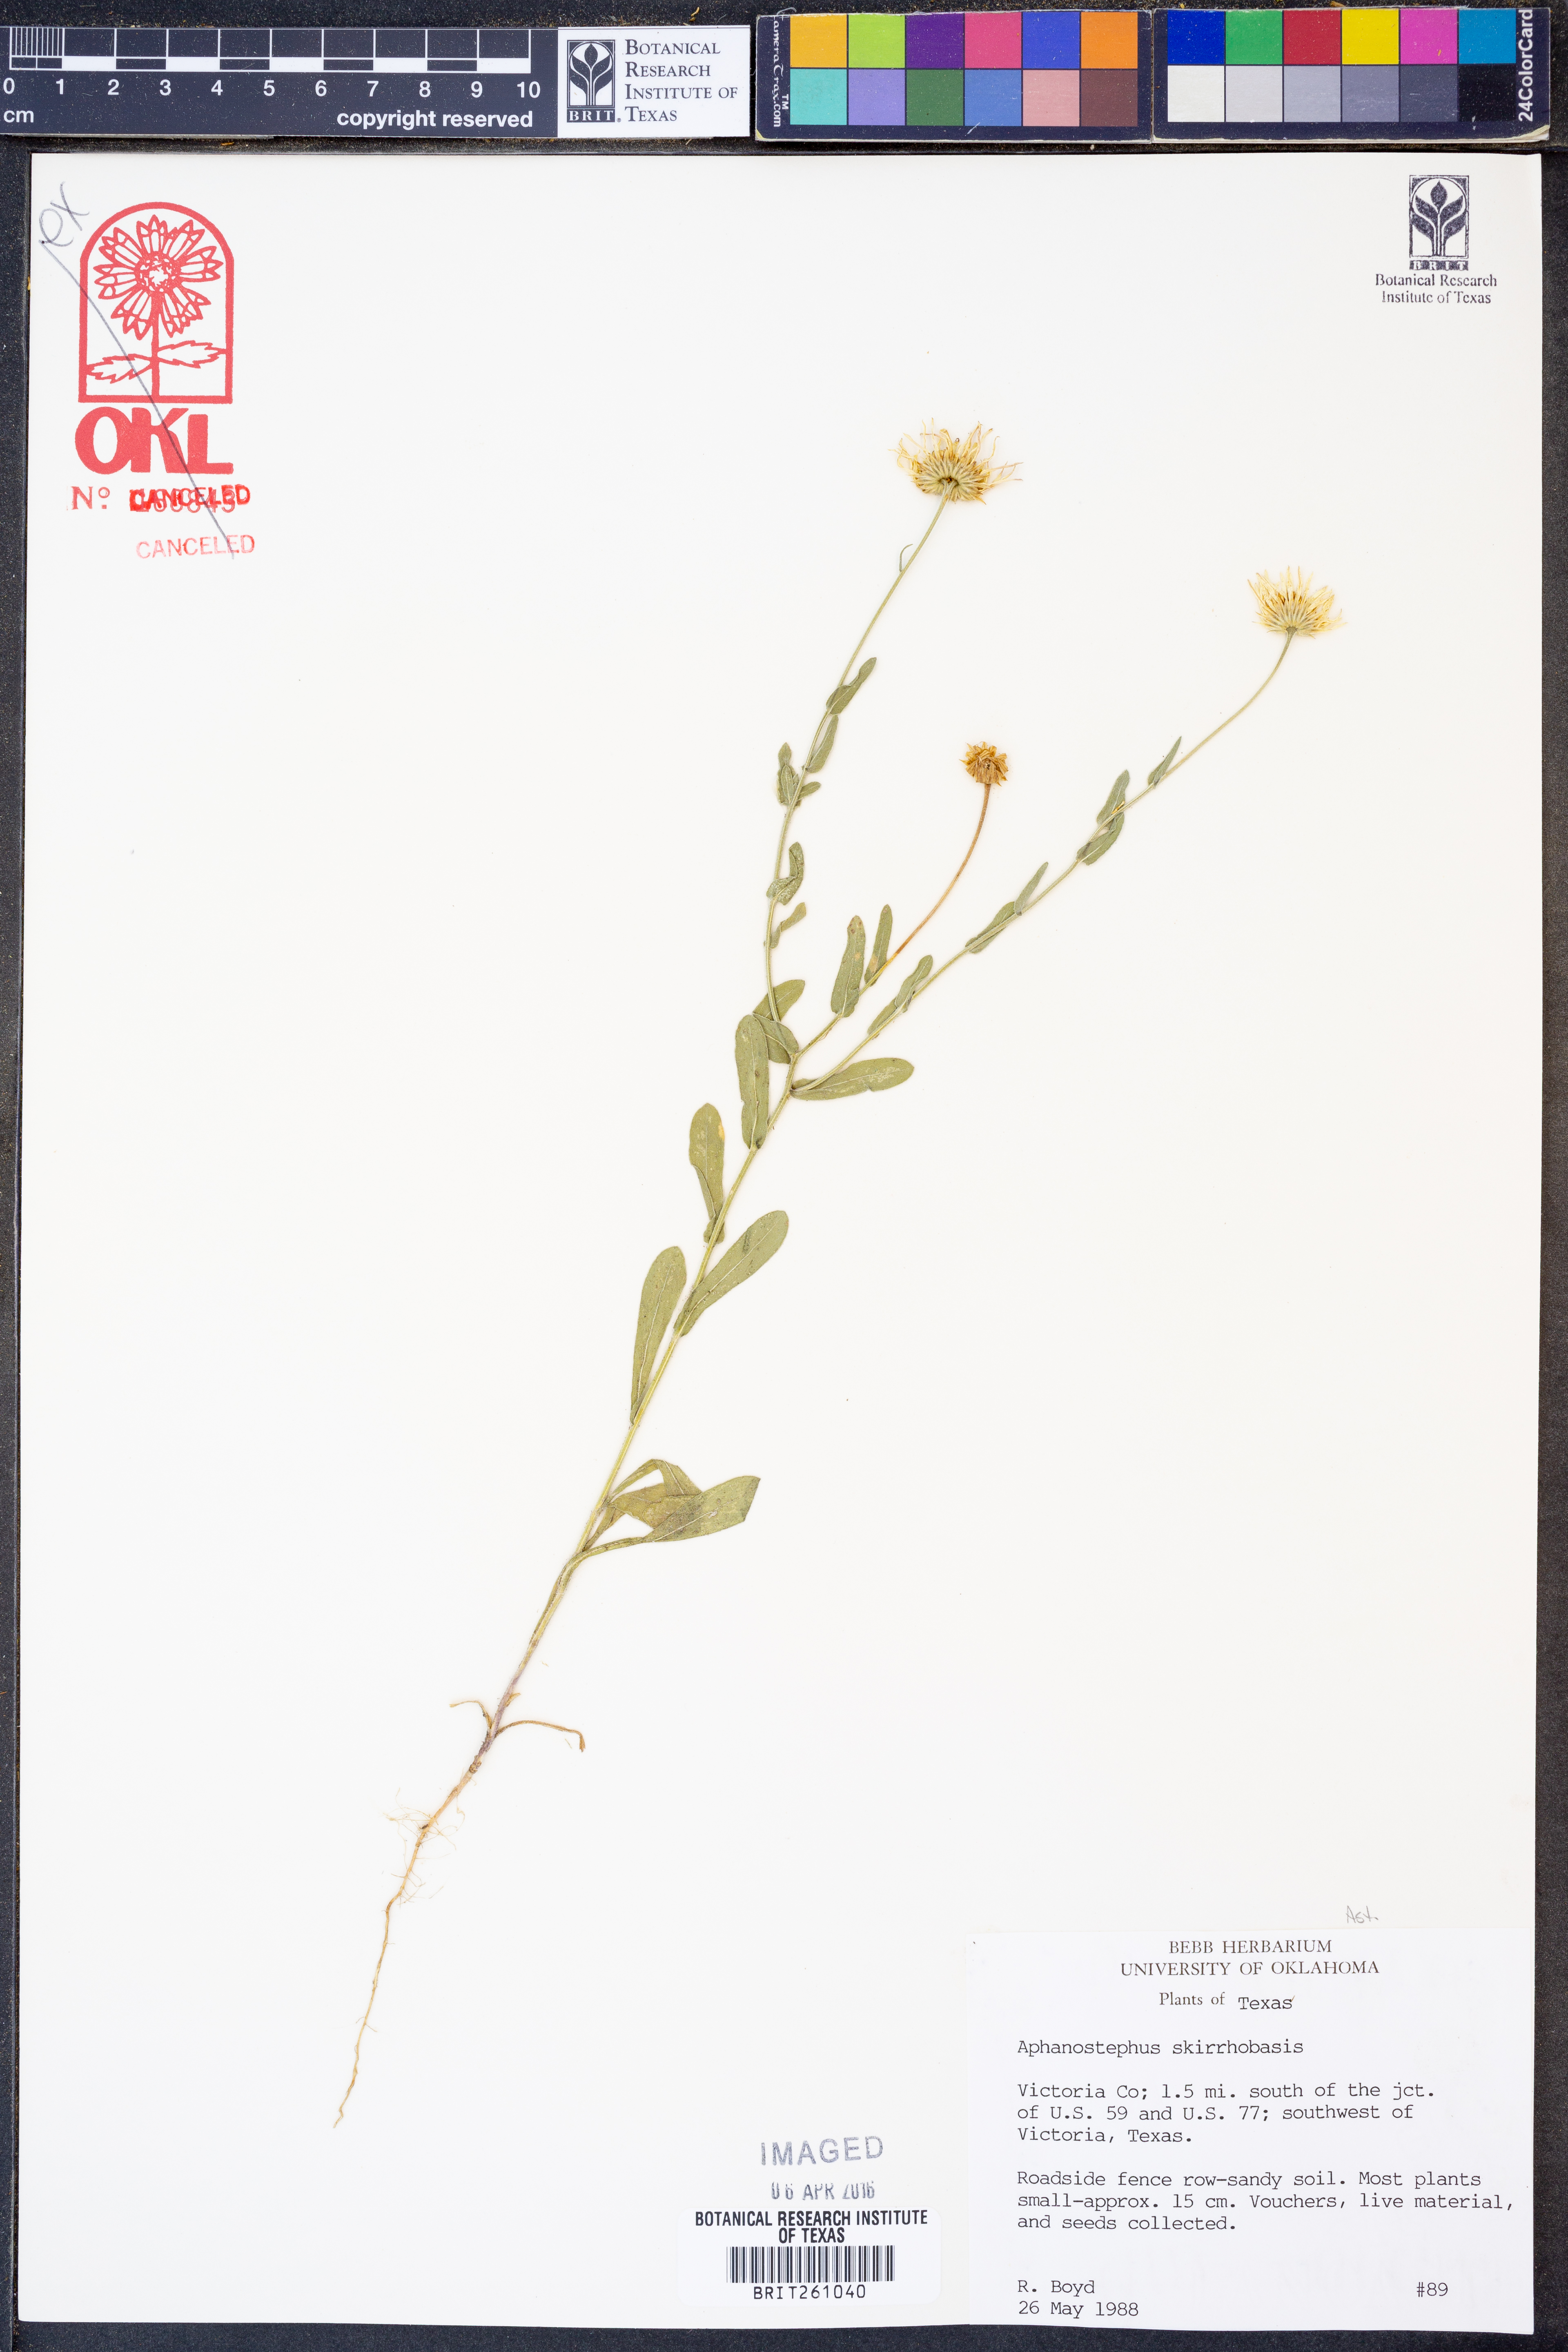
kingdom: Plantae
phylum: Tracheophyta
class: Magnoliopsida
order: Asterales
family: Asteraceae
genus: Aphanostephus
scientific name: Aphanostephus skirrhobasis
